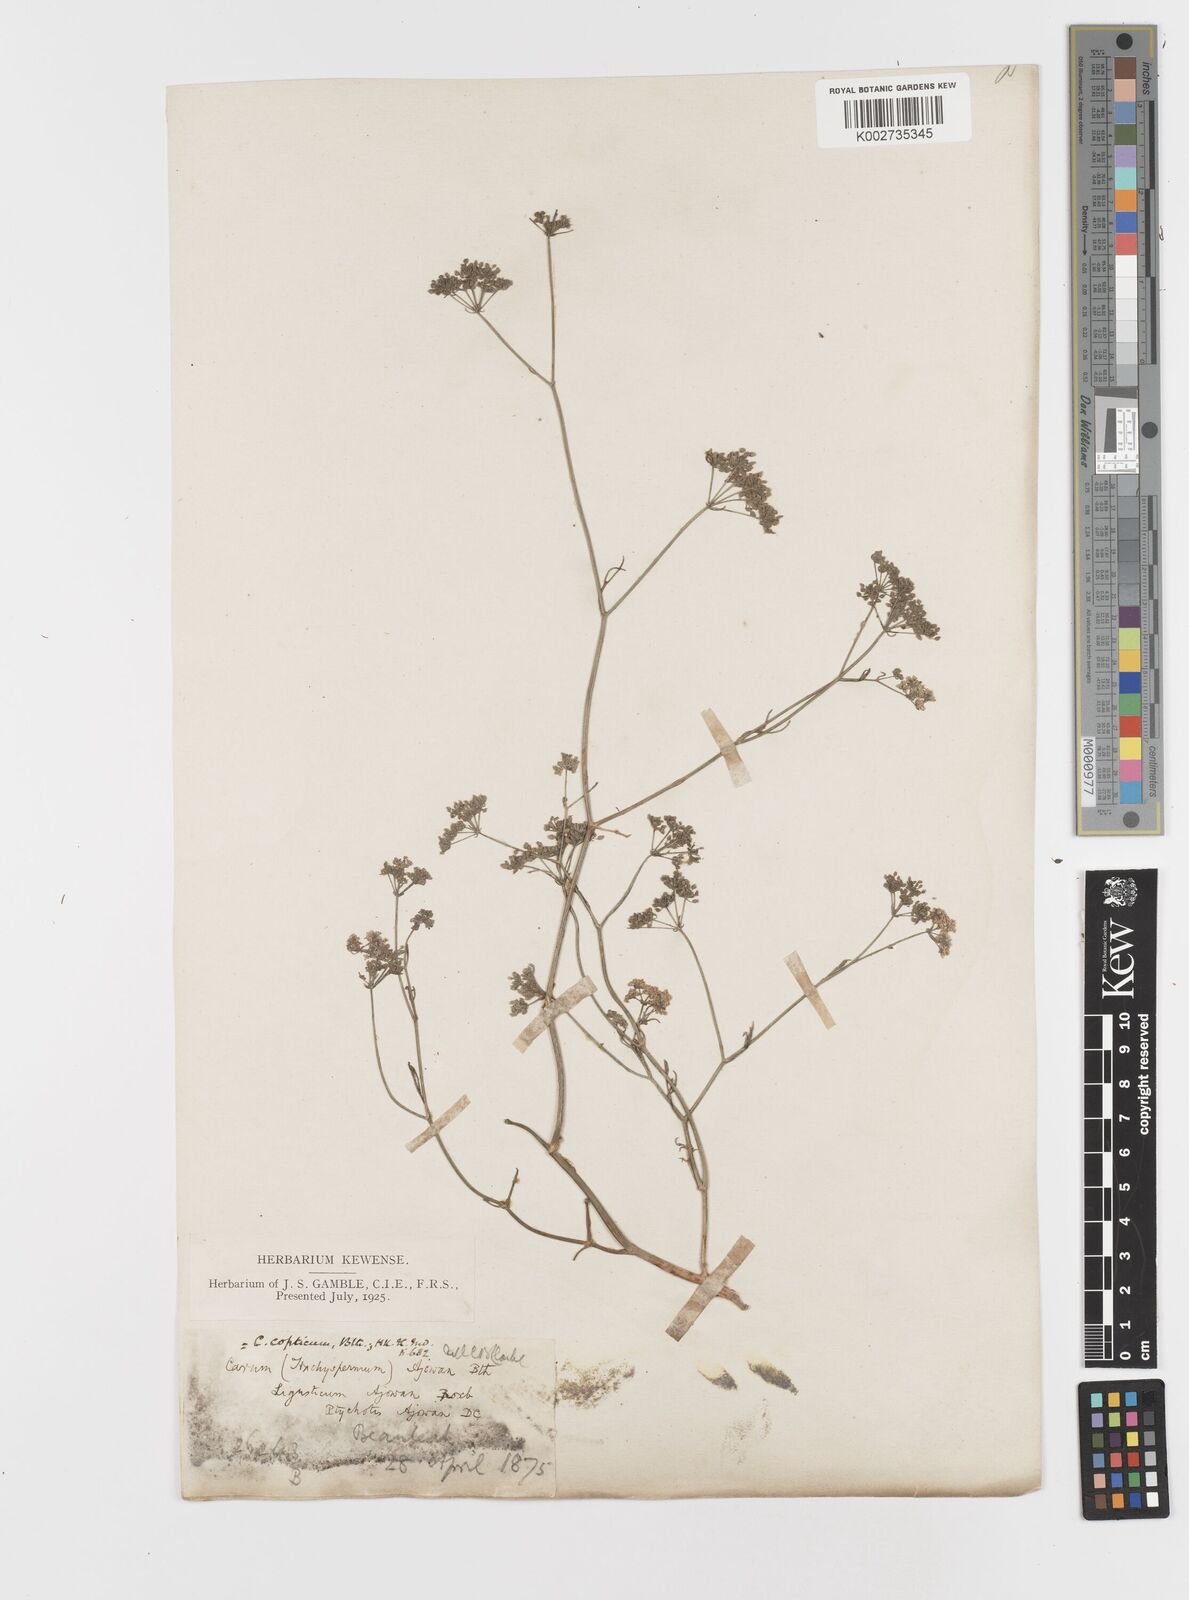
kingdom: Plantae
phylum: Tracheophyta
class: Magnoliopsida
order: Apiales
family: Apiaceae
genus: Psammogeton
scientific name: Psammogeton involucratum
